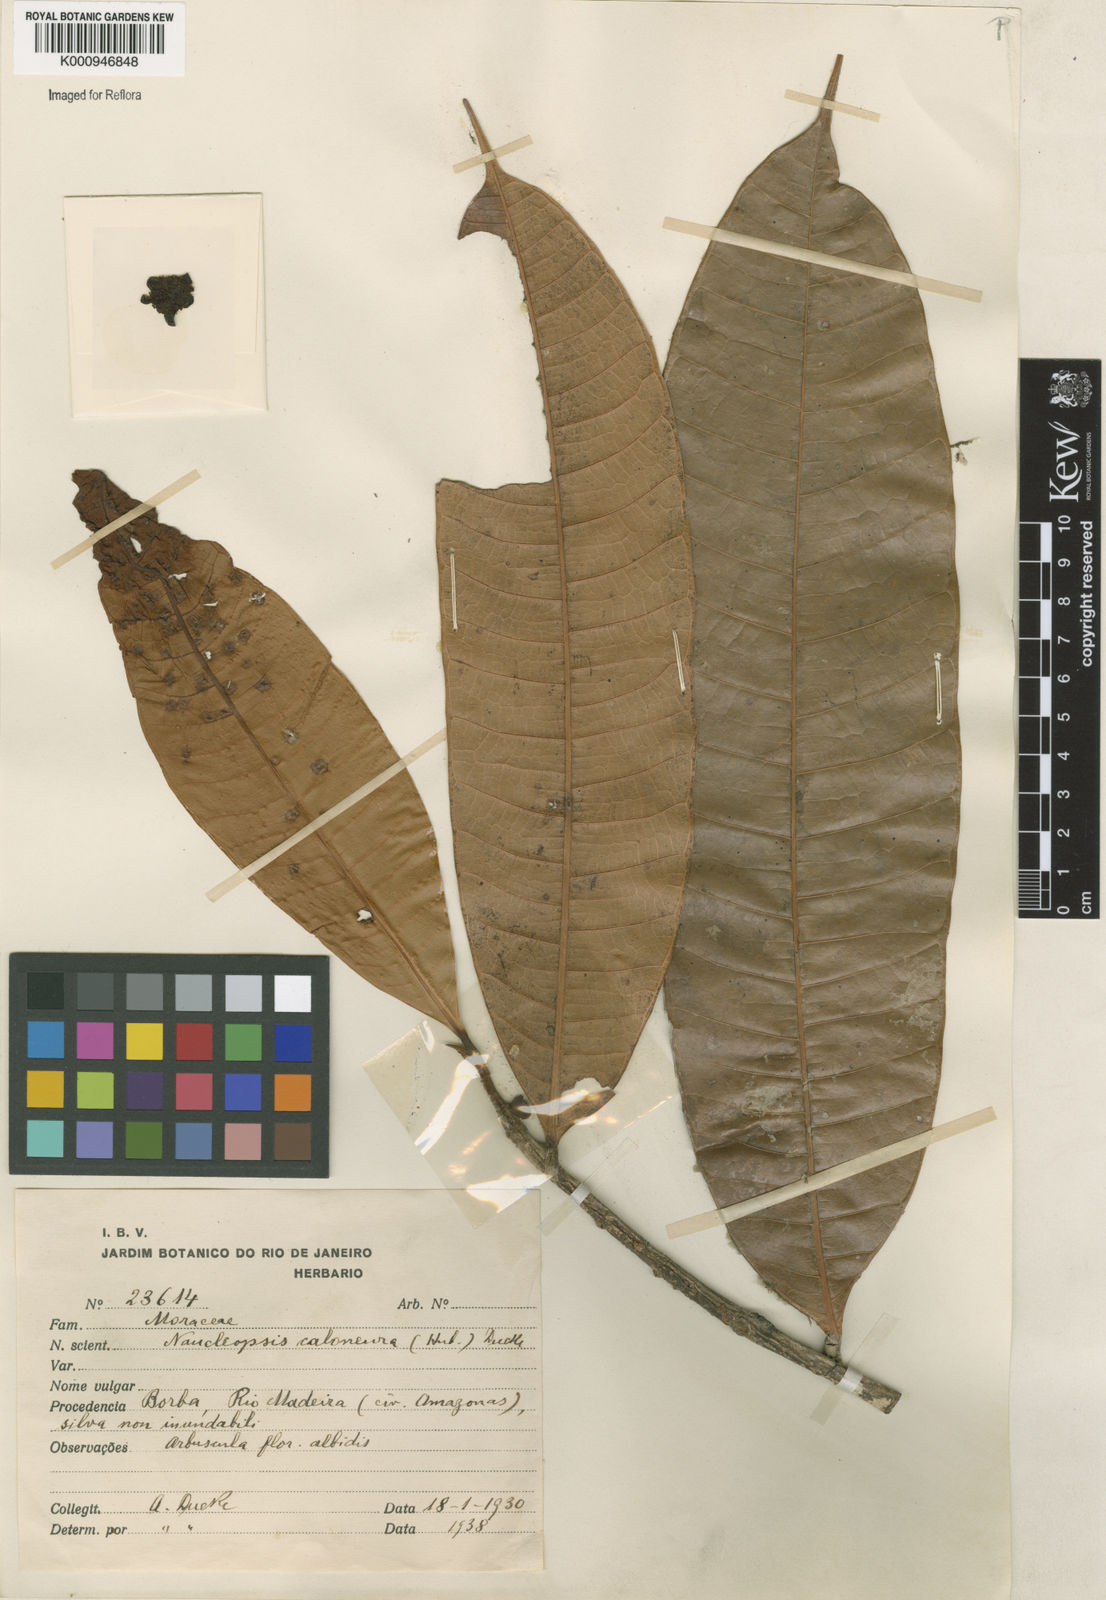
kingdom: Plantae
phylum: Tracheophyta
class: Magnoliopsida
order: Rosales
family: Moraceae
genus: Naucleopsis
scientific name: Naucleopsis caloneura
